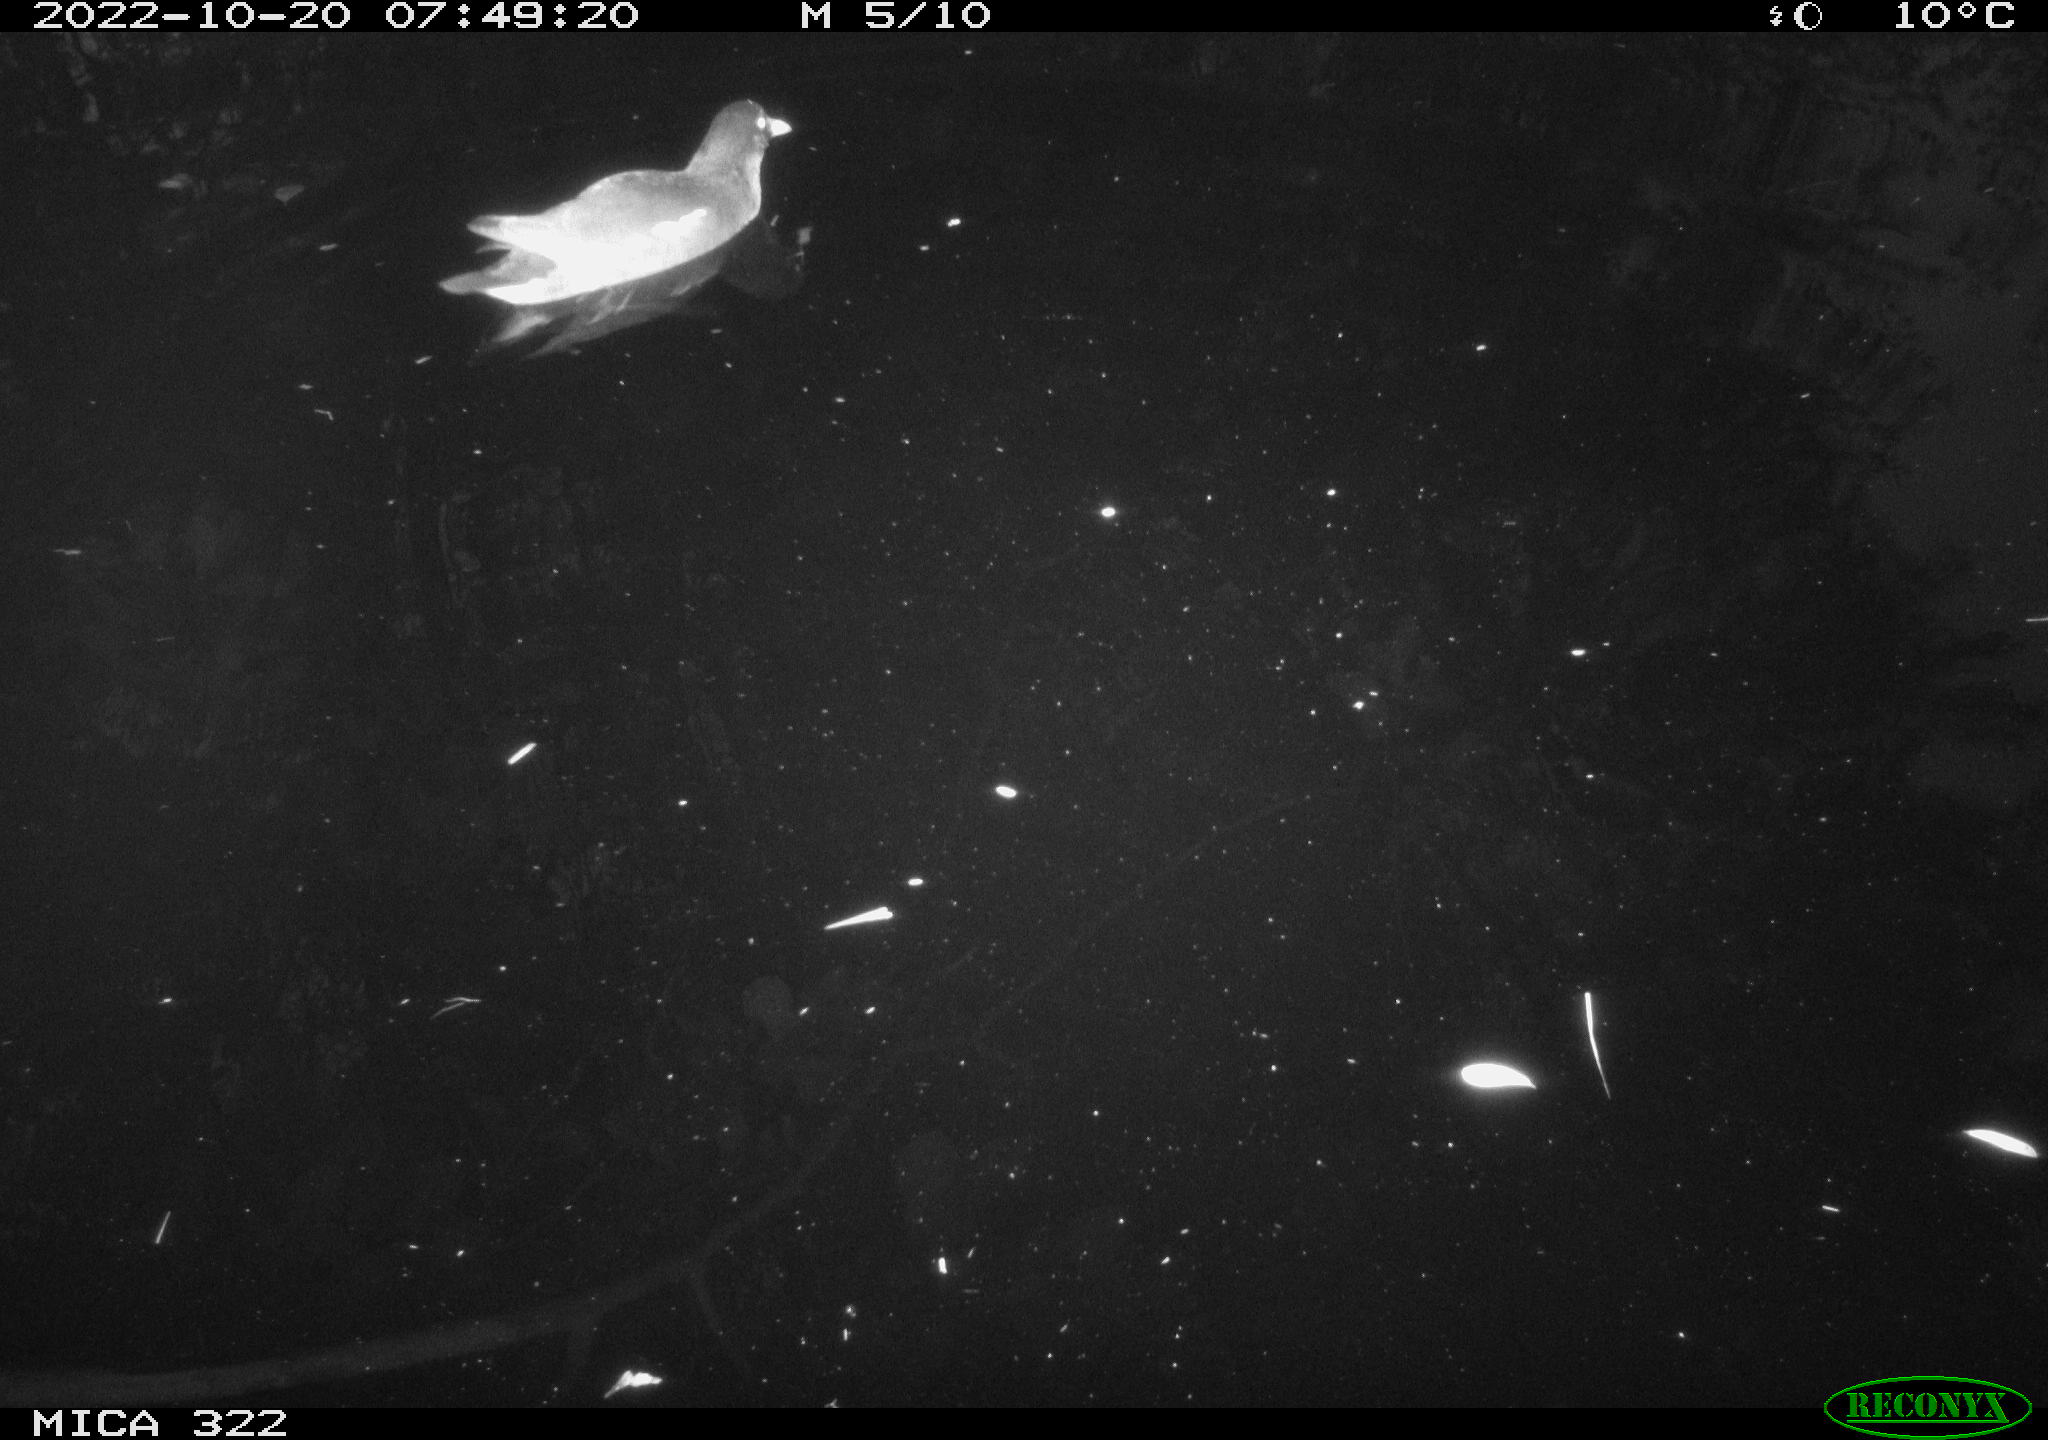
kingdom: Animalia
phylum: Chordata
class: Aves
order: Gruiformes
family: Rallidae
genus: Gallinula
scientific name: Gallinula chloropus
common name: Common moorhen
